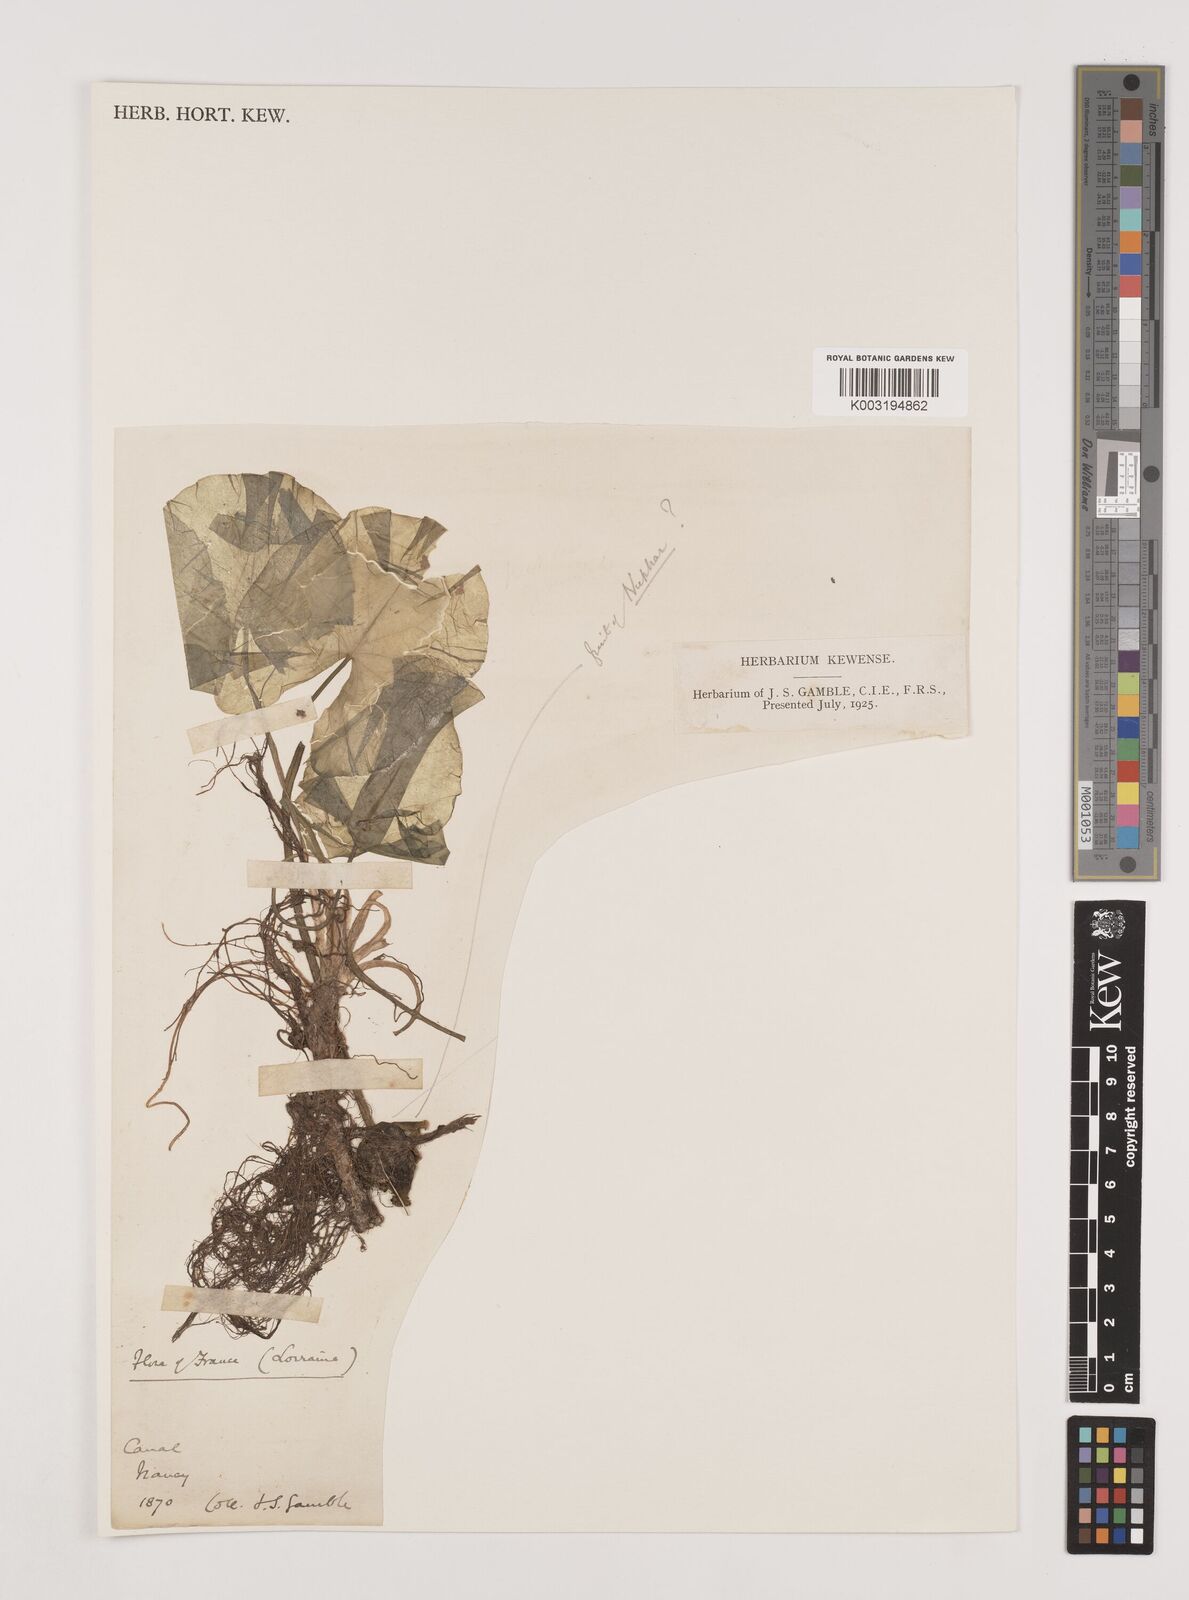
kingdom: Plantae
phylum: Tracheophyta
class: Liliopsida
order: Alismatales
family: Hydrocharitaceae
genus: Hydrocharis
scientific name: Hydrocharis morsus-ranae
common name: Frogbit
